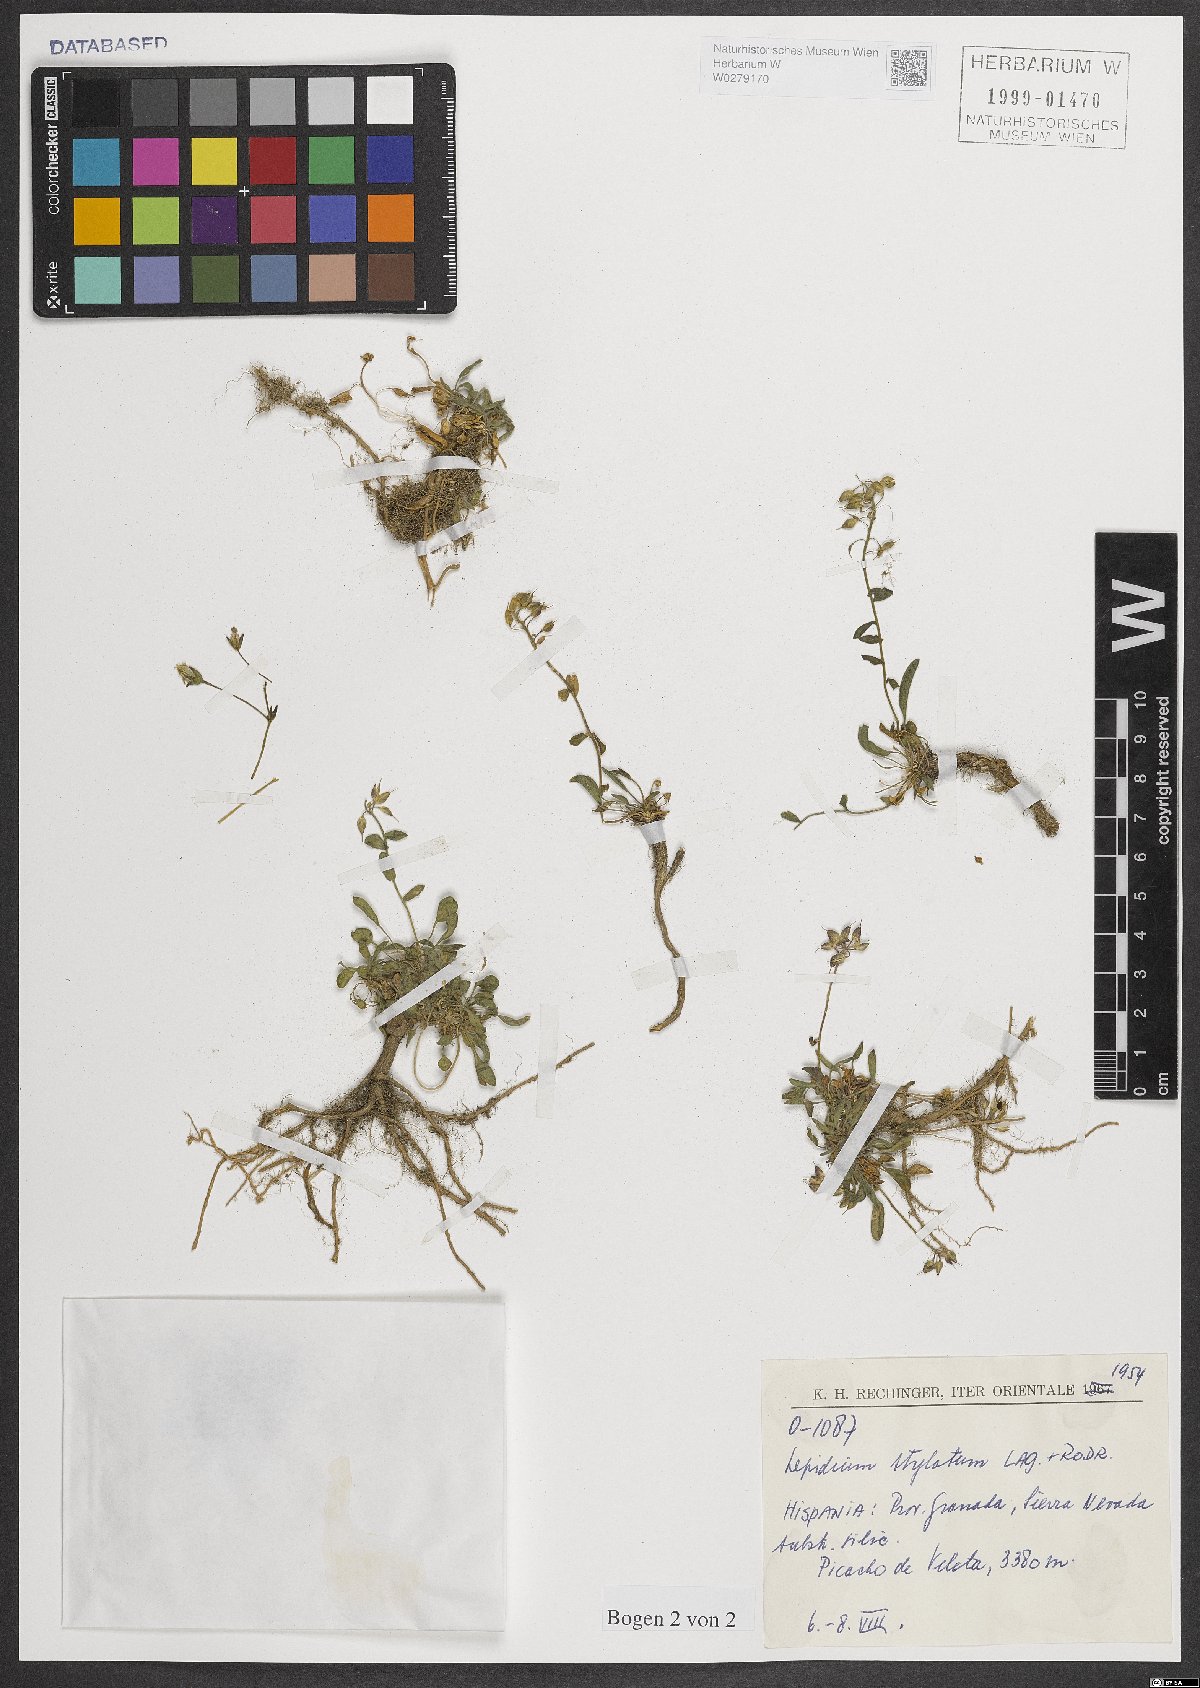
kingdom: Plantae
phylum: Tracheophyta
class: Magnoliopsida
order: Brassicales
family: Brassicaceae
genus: Lepidium
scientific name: Lepidium hirtum
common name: Mediterranean pepperweed
